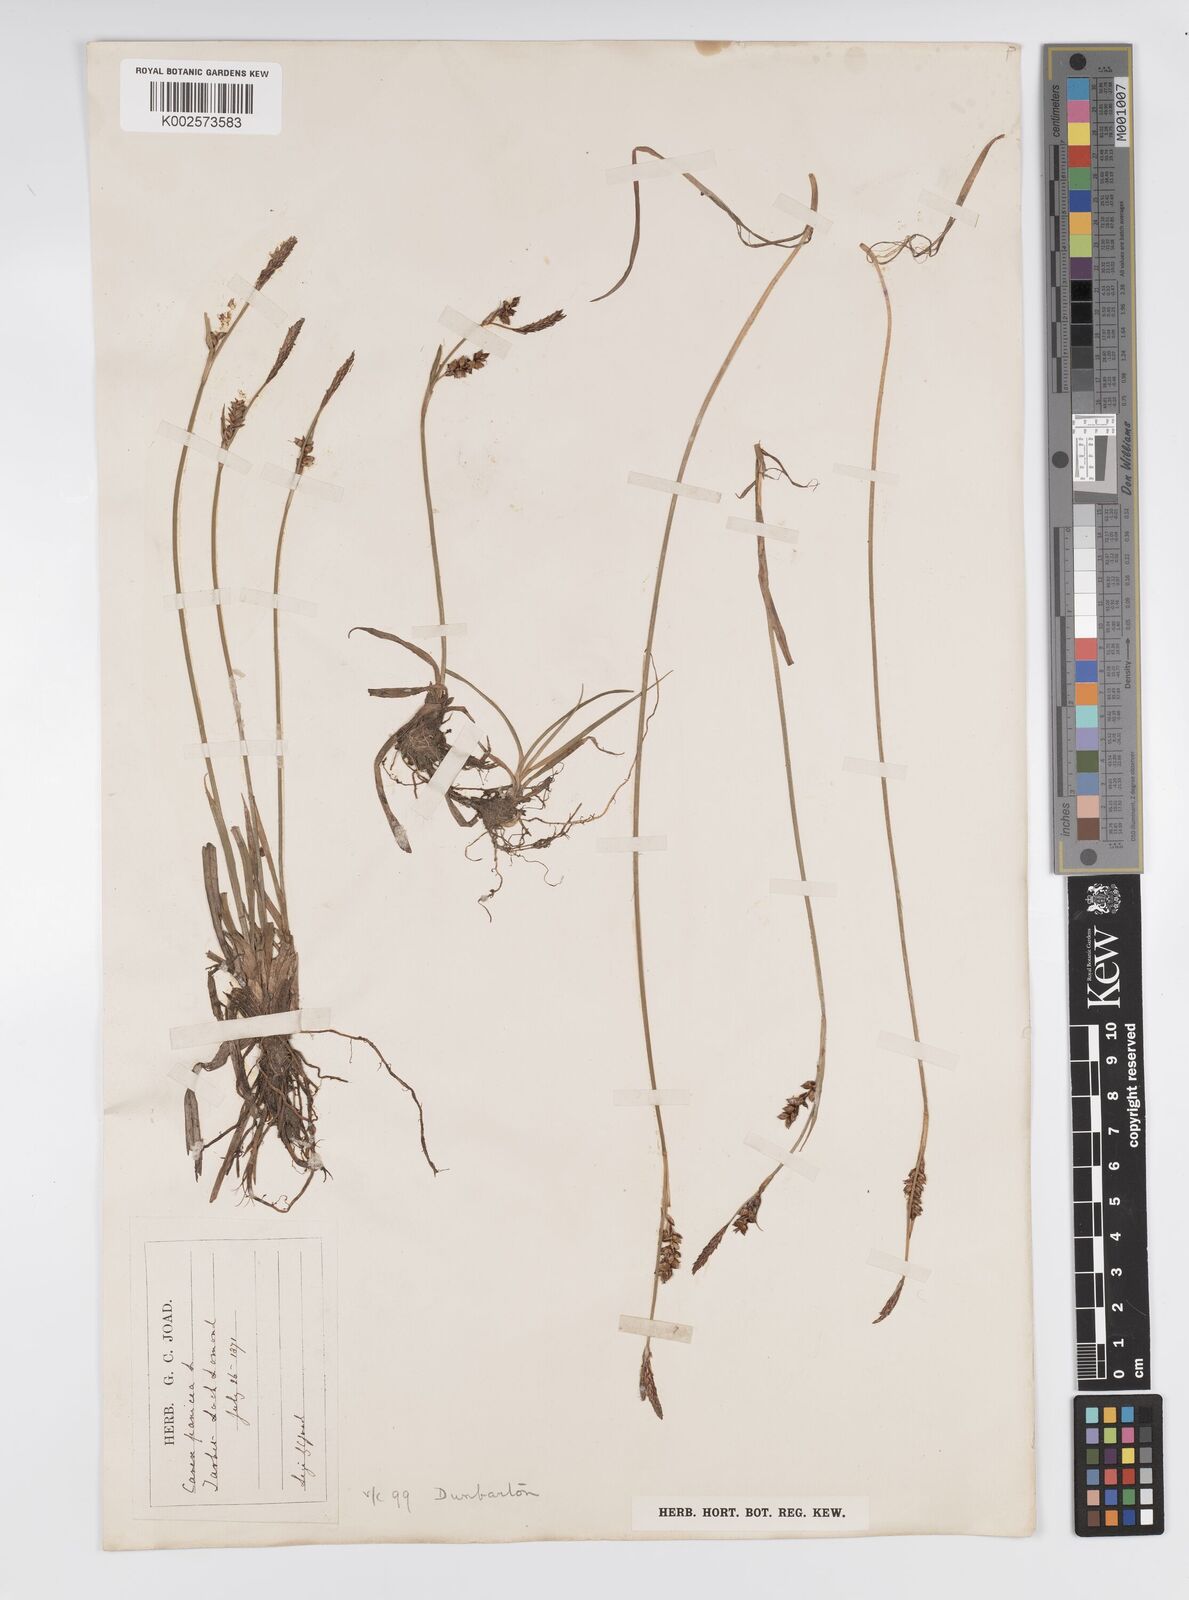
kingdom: Plantae
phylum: Tracheophyta
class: Liliopsida
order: Poales
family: Cyperaceae
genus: Carex
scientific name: Carex panicea
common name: Carnation sedge
